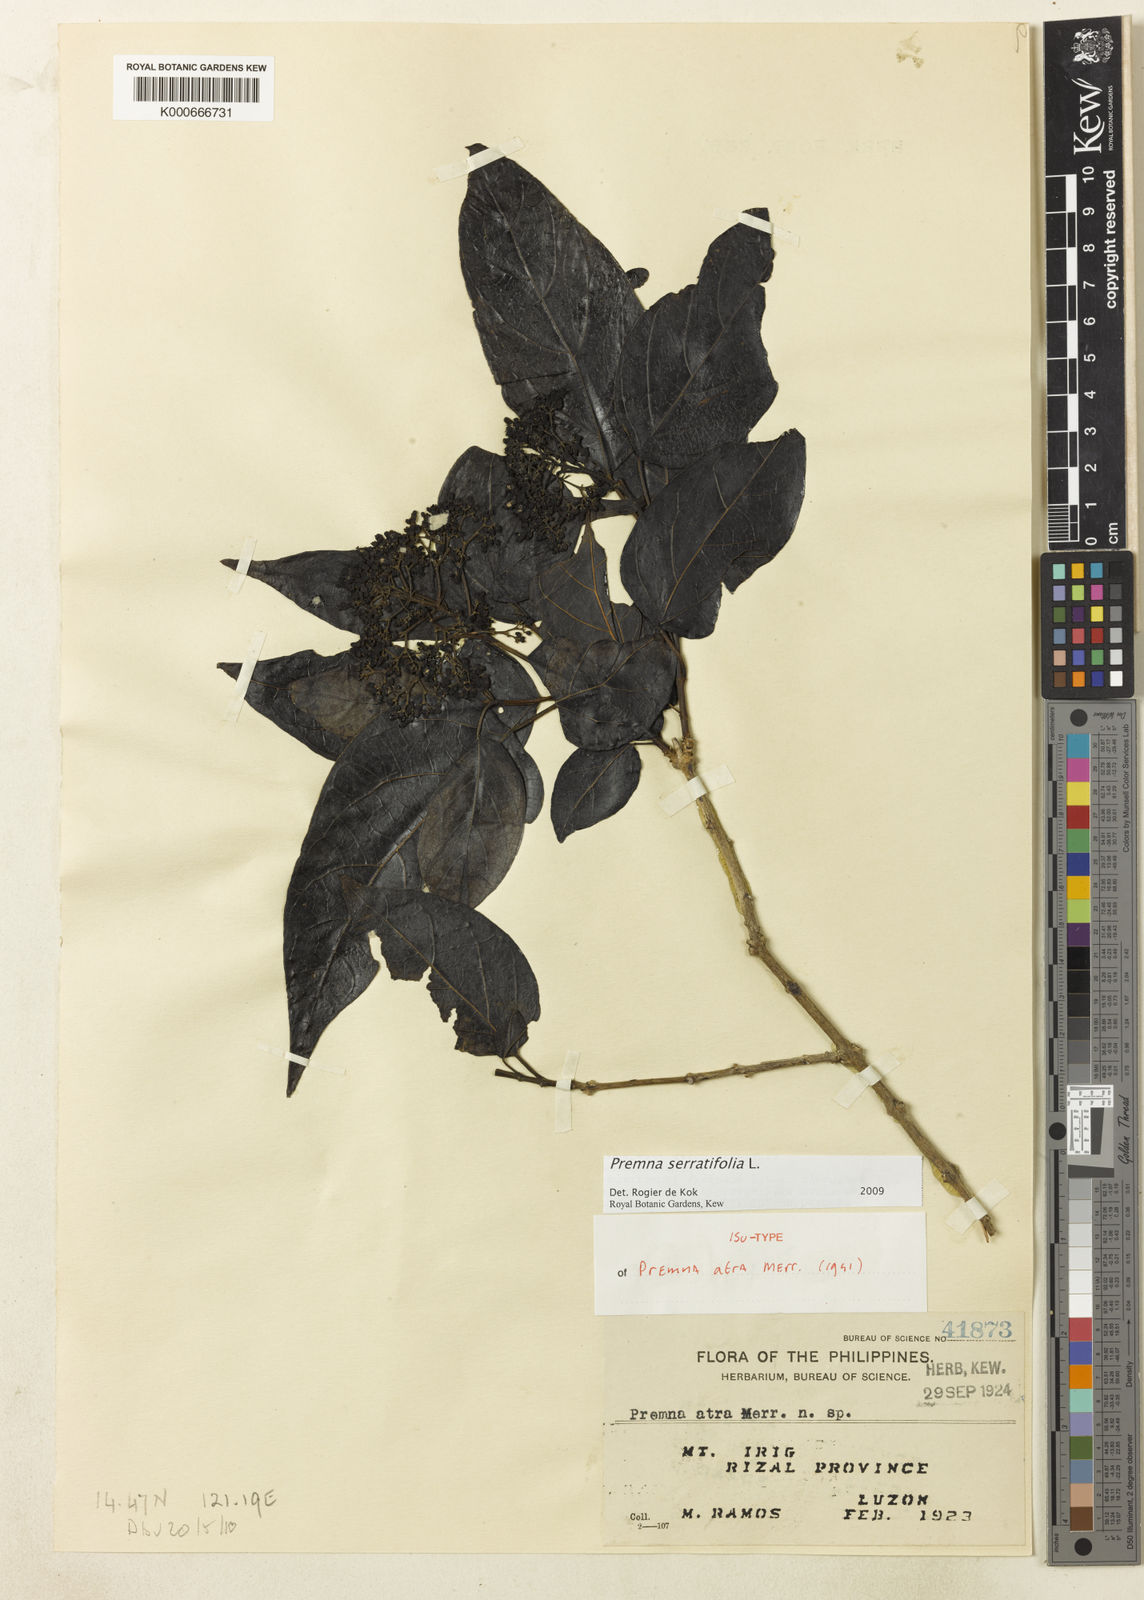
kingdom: Plantae
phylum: Tracheophyta
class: Magnoliopsida
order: Lamiales
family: Lamiaceae
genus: Premna
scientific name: Premna serratifolia
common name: Bastard guelder
